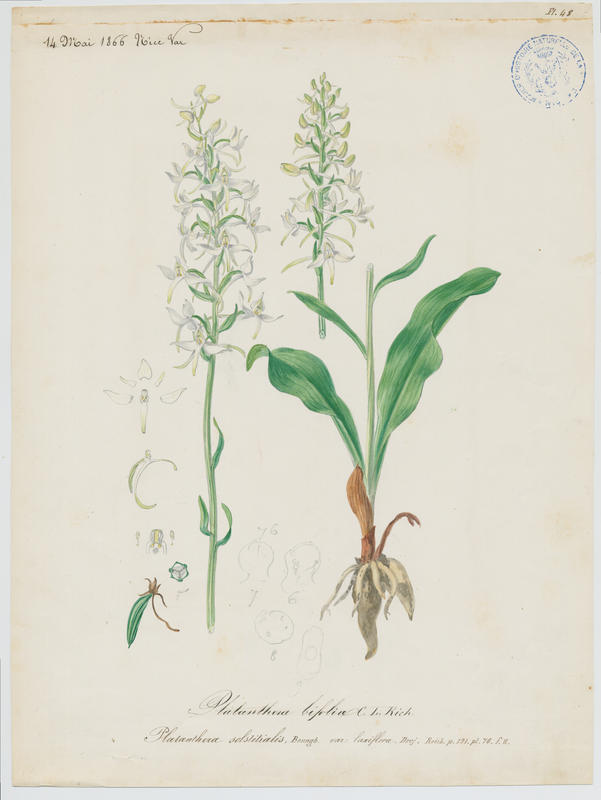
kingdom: Plantae
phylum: Tracheophyta
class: Liliopsida
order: Asparagales
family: Orchidaceae
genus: Platanthera
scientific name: Platanthera bifolia
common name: Lesser butterfly-orchid
